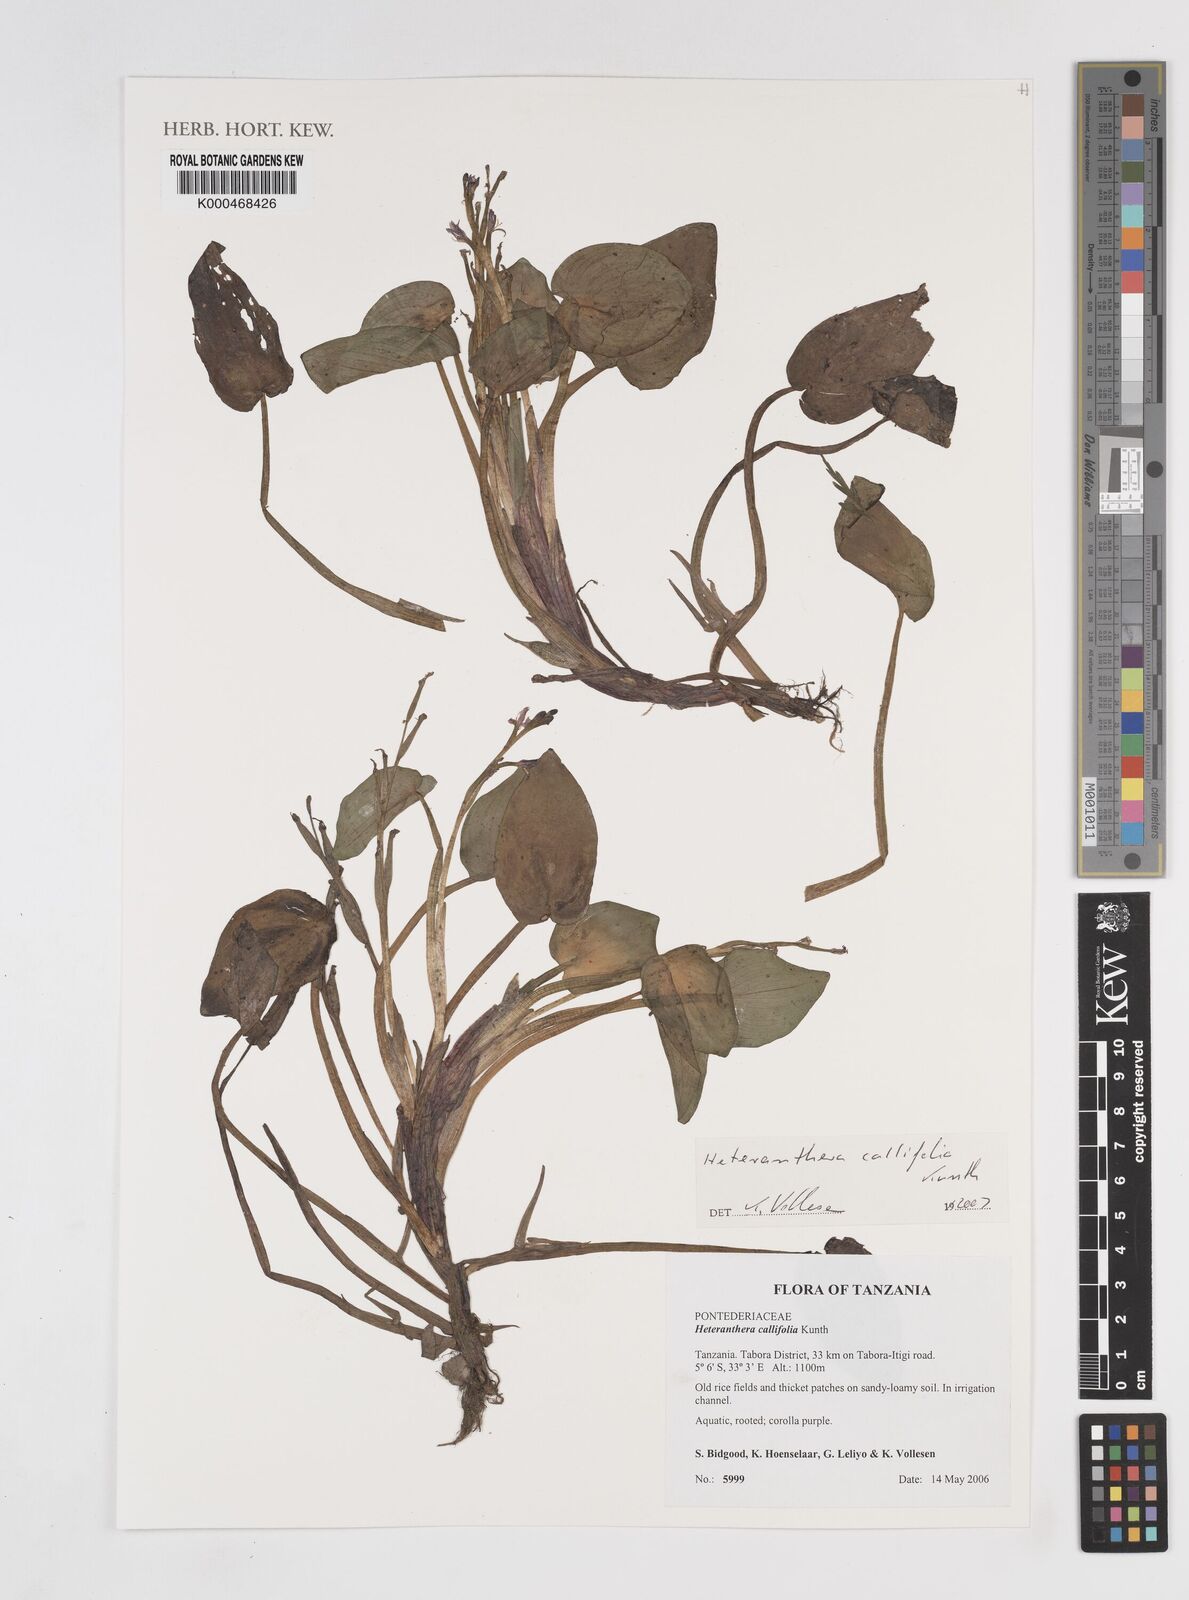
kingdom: Plantae
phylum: Tracheophyta
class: Liliopsida
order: Commelinales
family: Pontederiaceae
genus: Heteranthera
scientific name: Heteranthera callifolia
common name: Mud plantain
